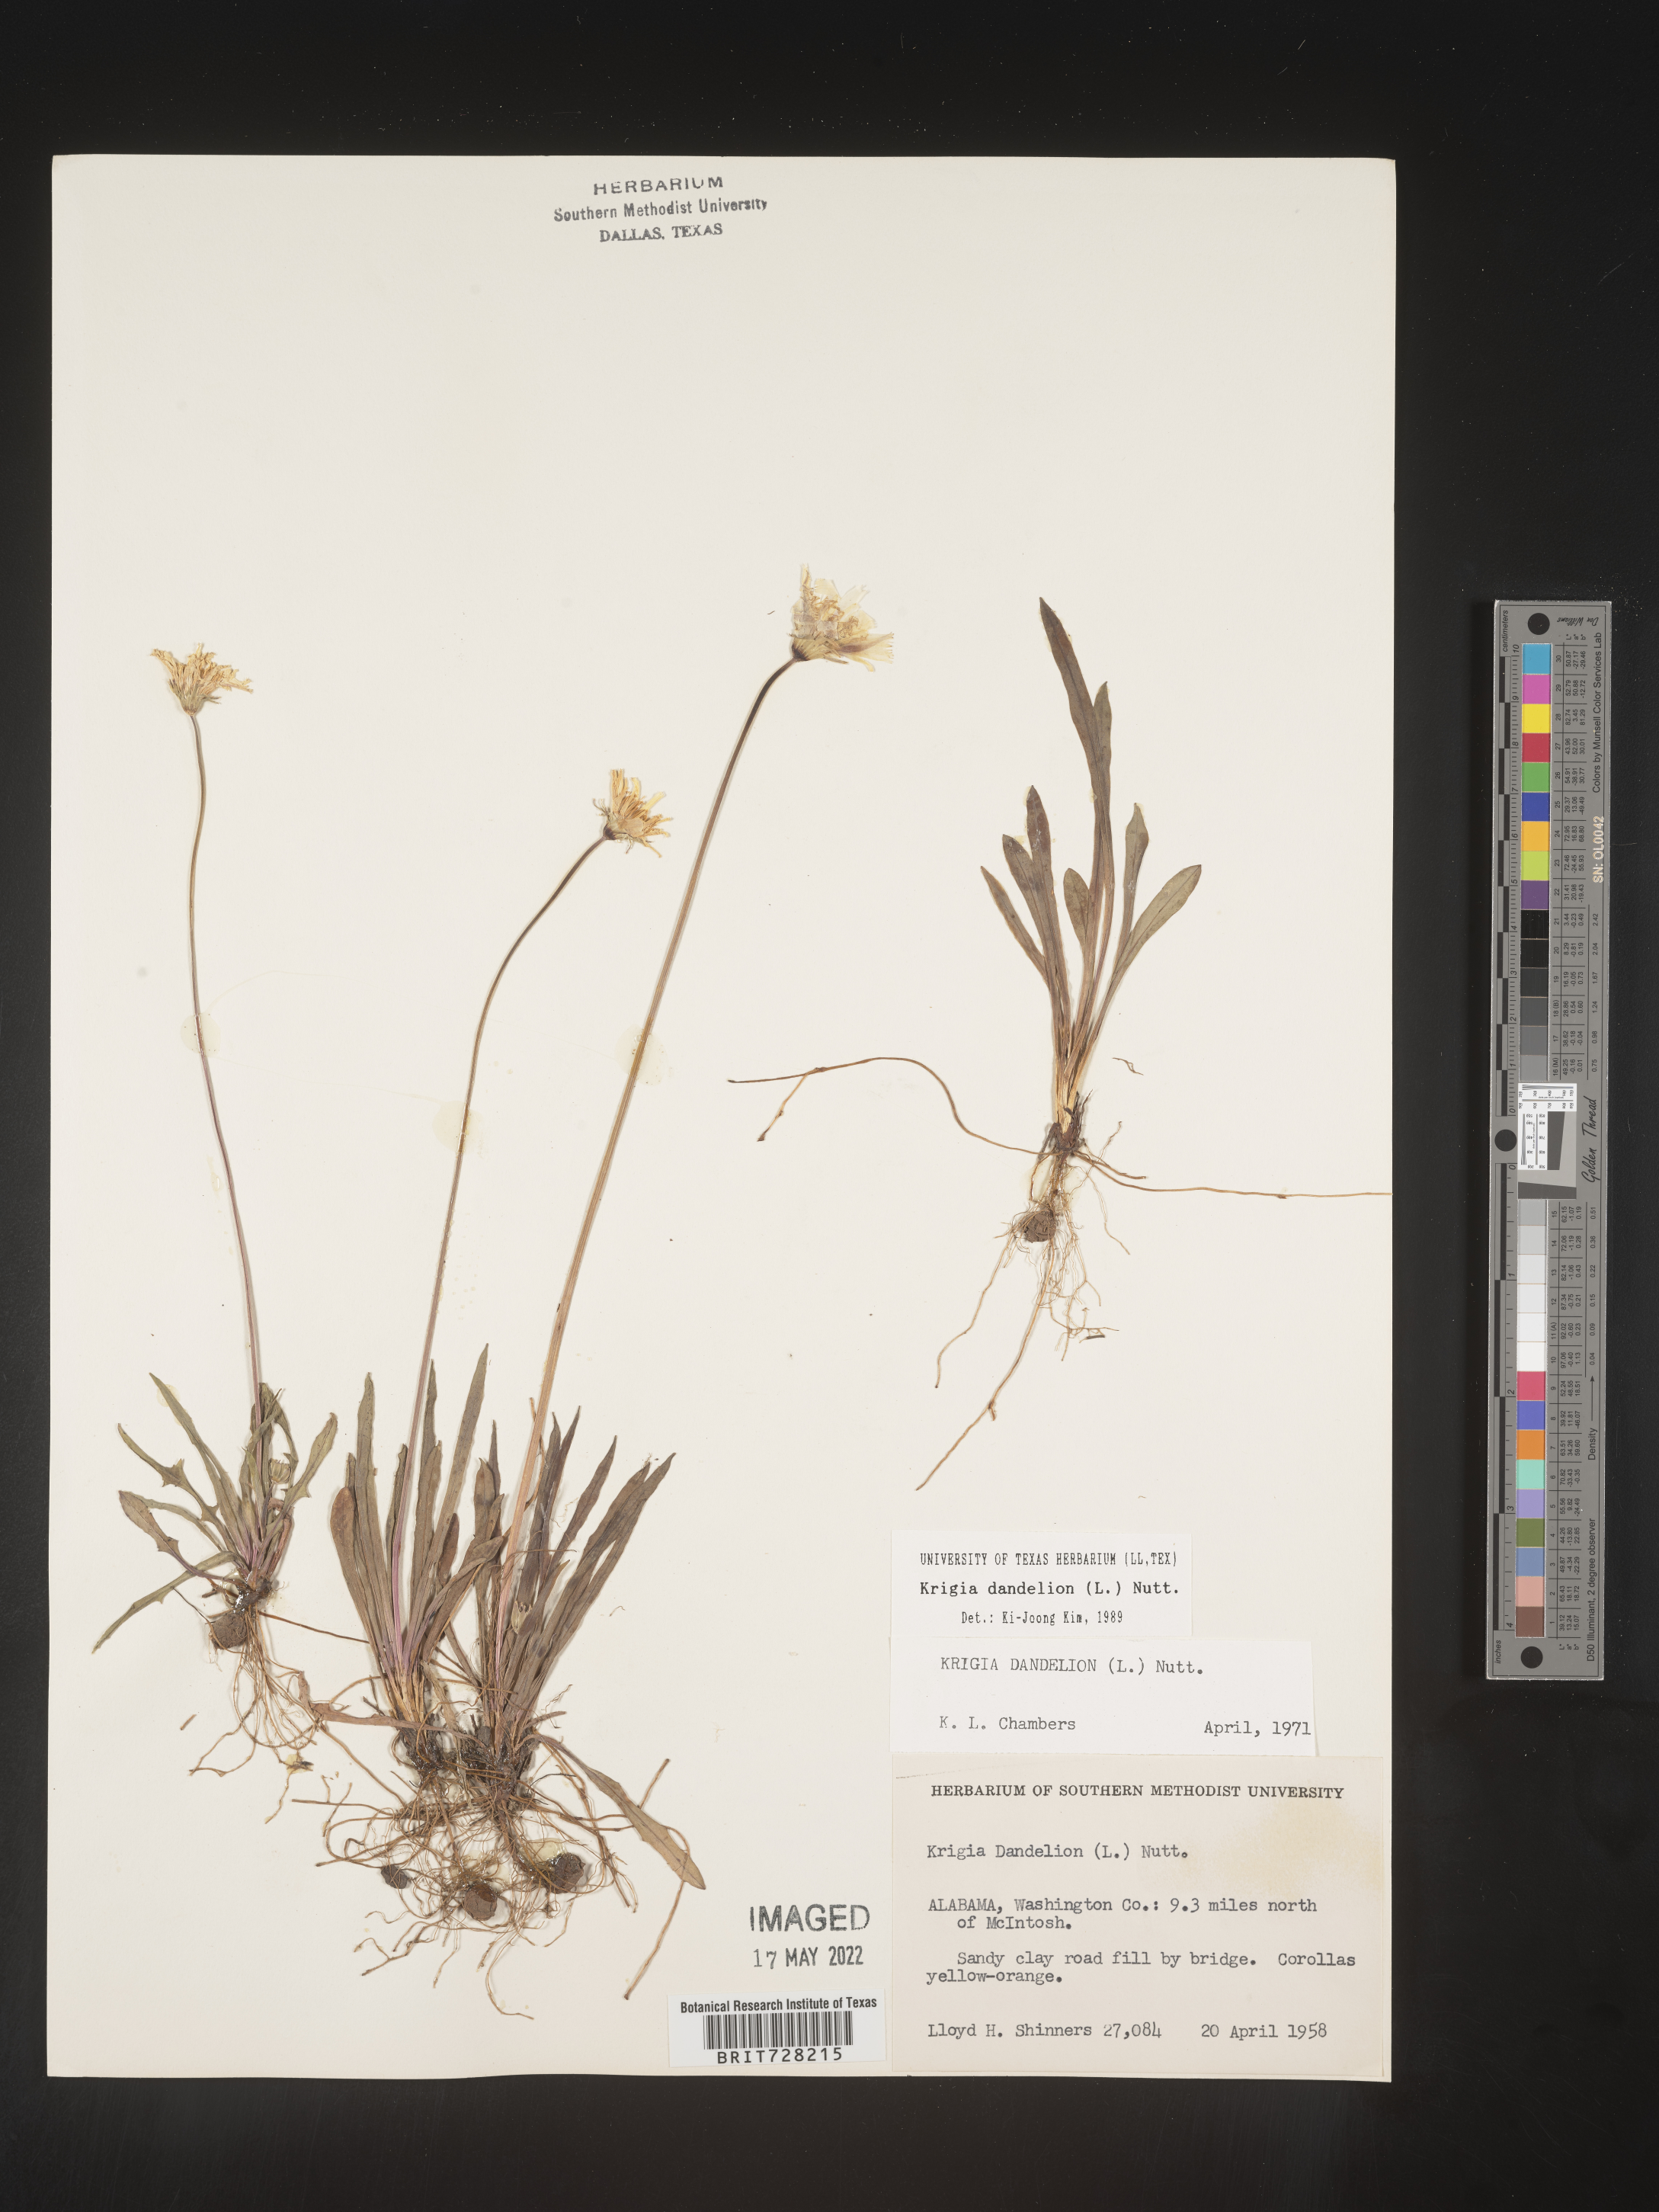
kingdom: Plantae
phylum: Tracheophyta
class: Magnoliopsida
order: Asterales
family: Asteraceae
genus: Krigia
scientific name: Krigia dandelion
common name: Colonial dwarf-dandelion
